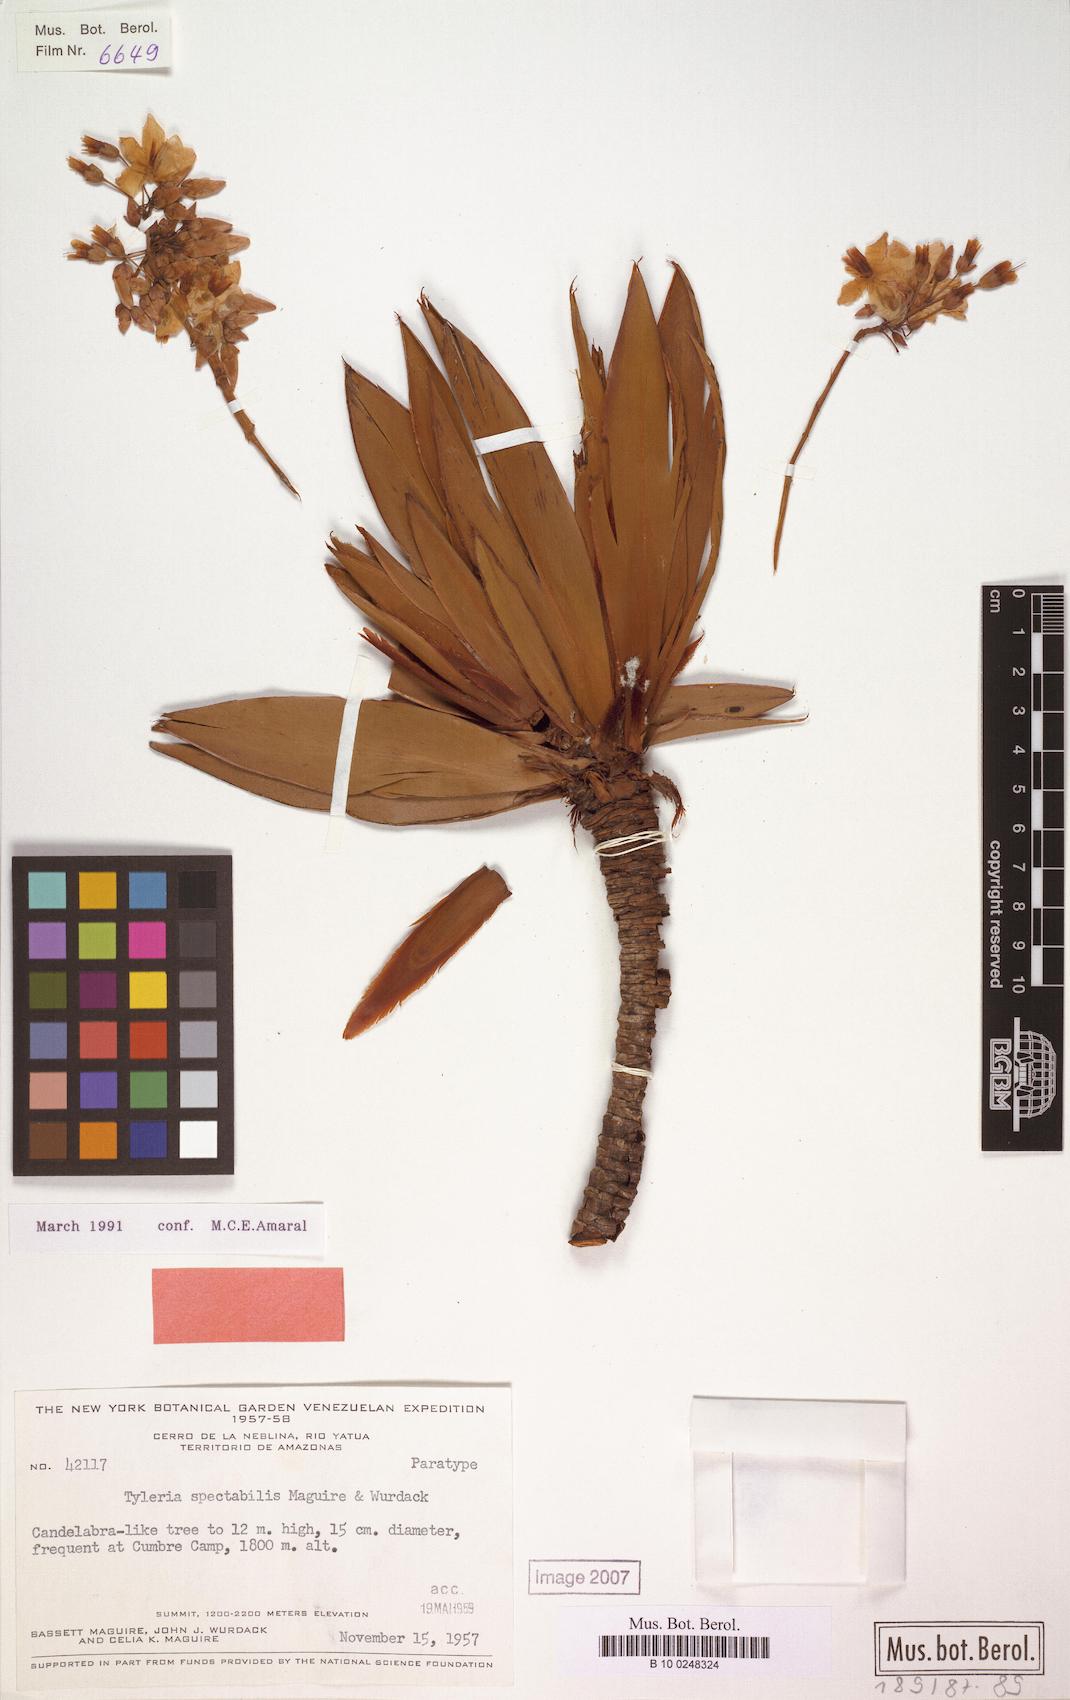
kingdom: Plantae
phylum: Tracheophyta
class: Magnoliopsida
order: Malpighiales
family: Ochnaceae
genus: Tyleria
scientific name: Tyleria spectabilis
